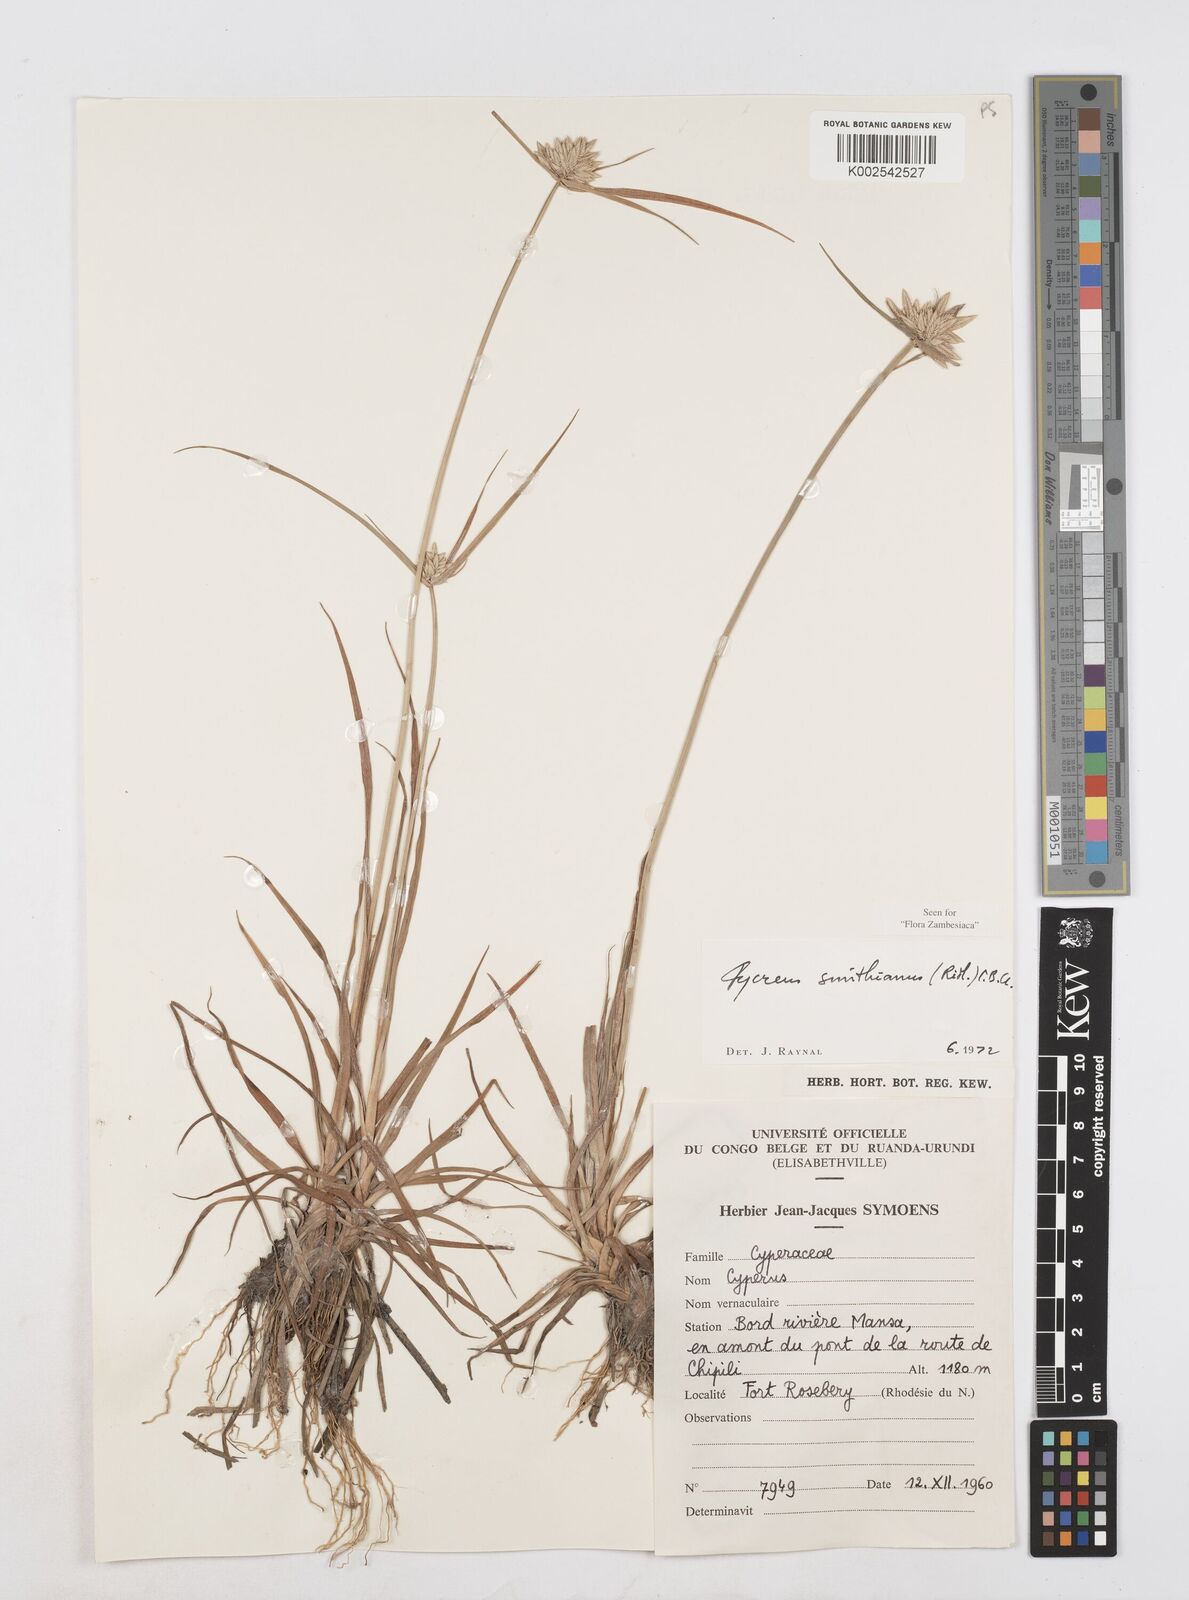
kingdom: Plantae
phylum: Tracheophyta
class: Liliopsida
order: Poales
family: Cyperaceae
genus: Cyperus
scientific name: Cyperus smithianus
